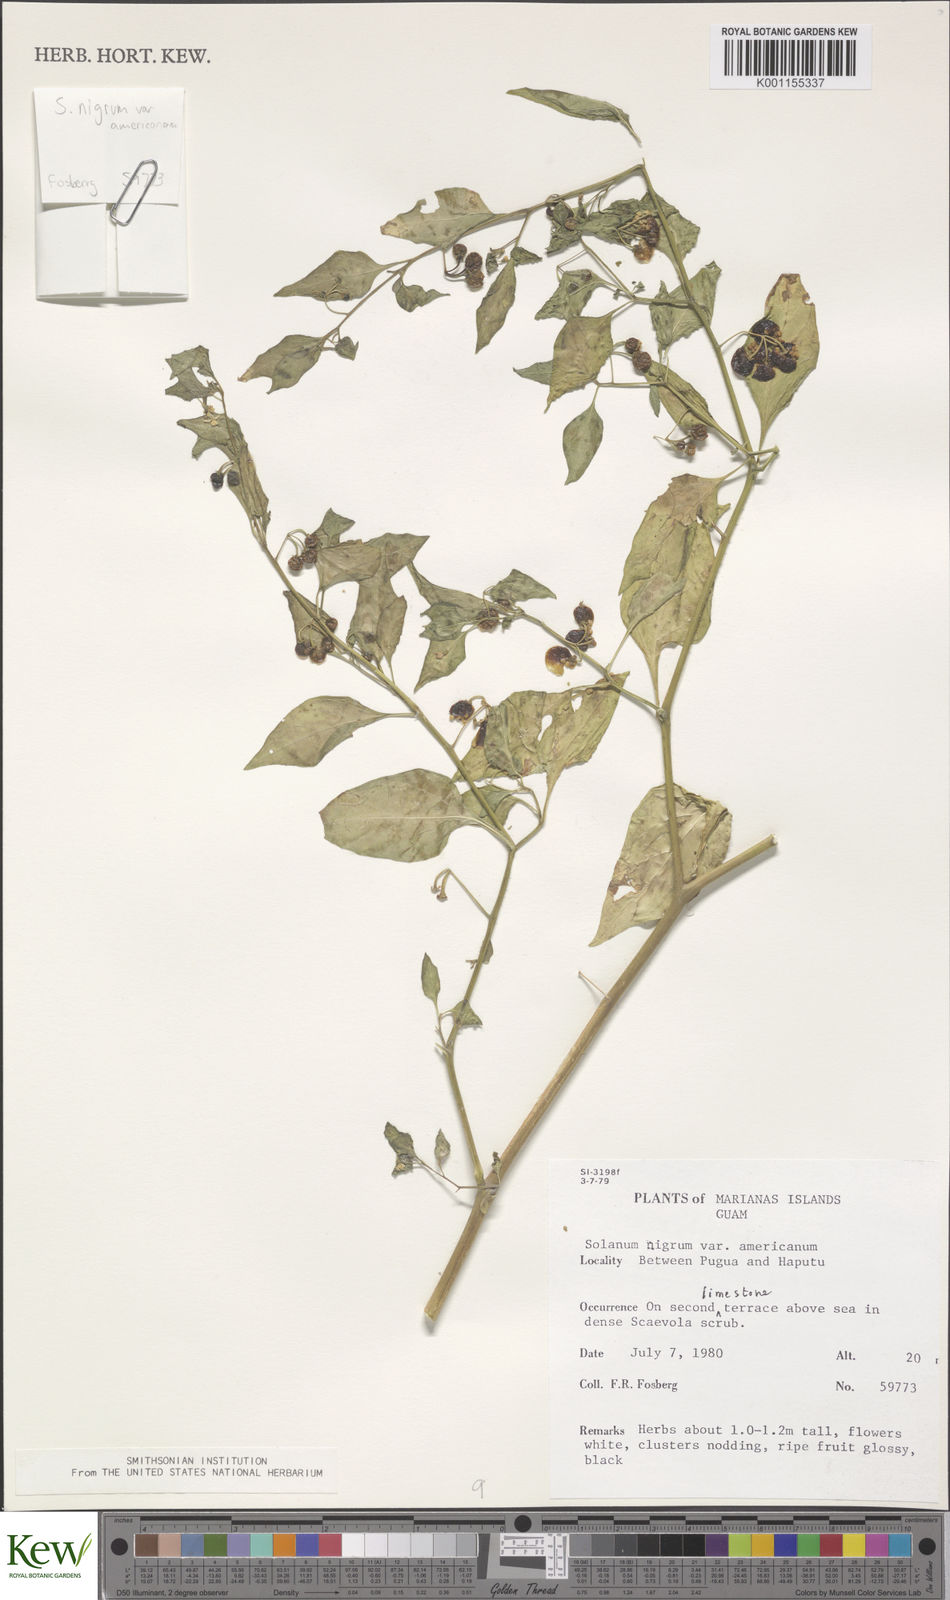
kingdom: Plantae
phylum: Tracheophyta
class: Magnoliopsida
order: Solanales
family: Solanaceae
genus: Solanum
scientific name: Solanum americanum
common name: American black nightshade
